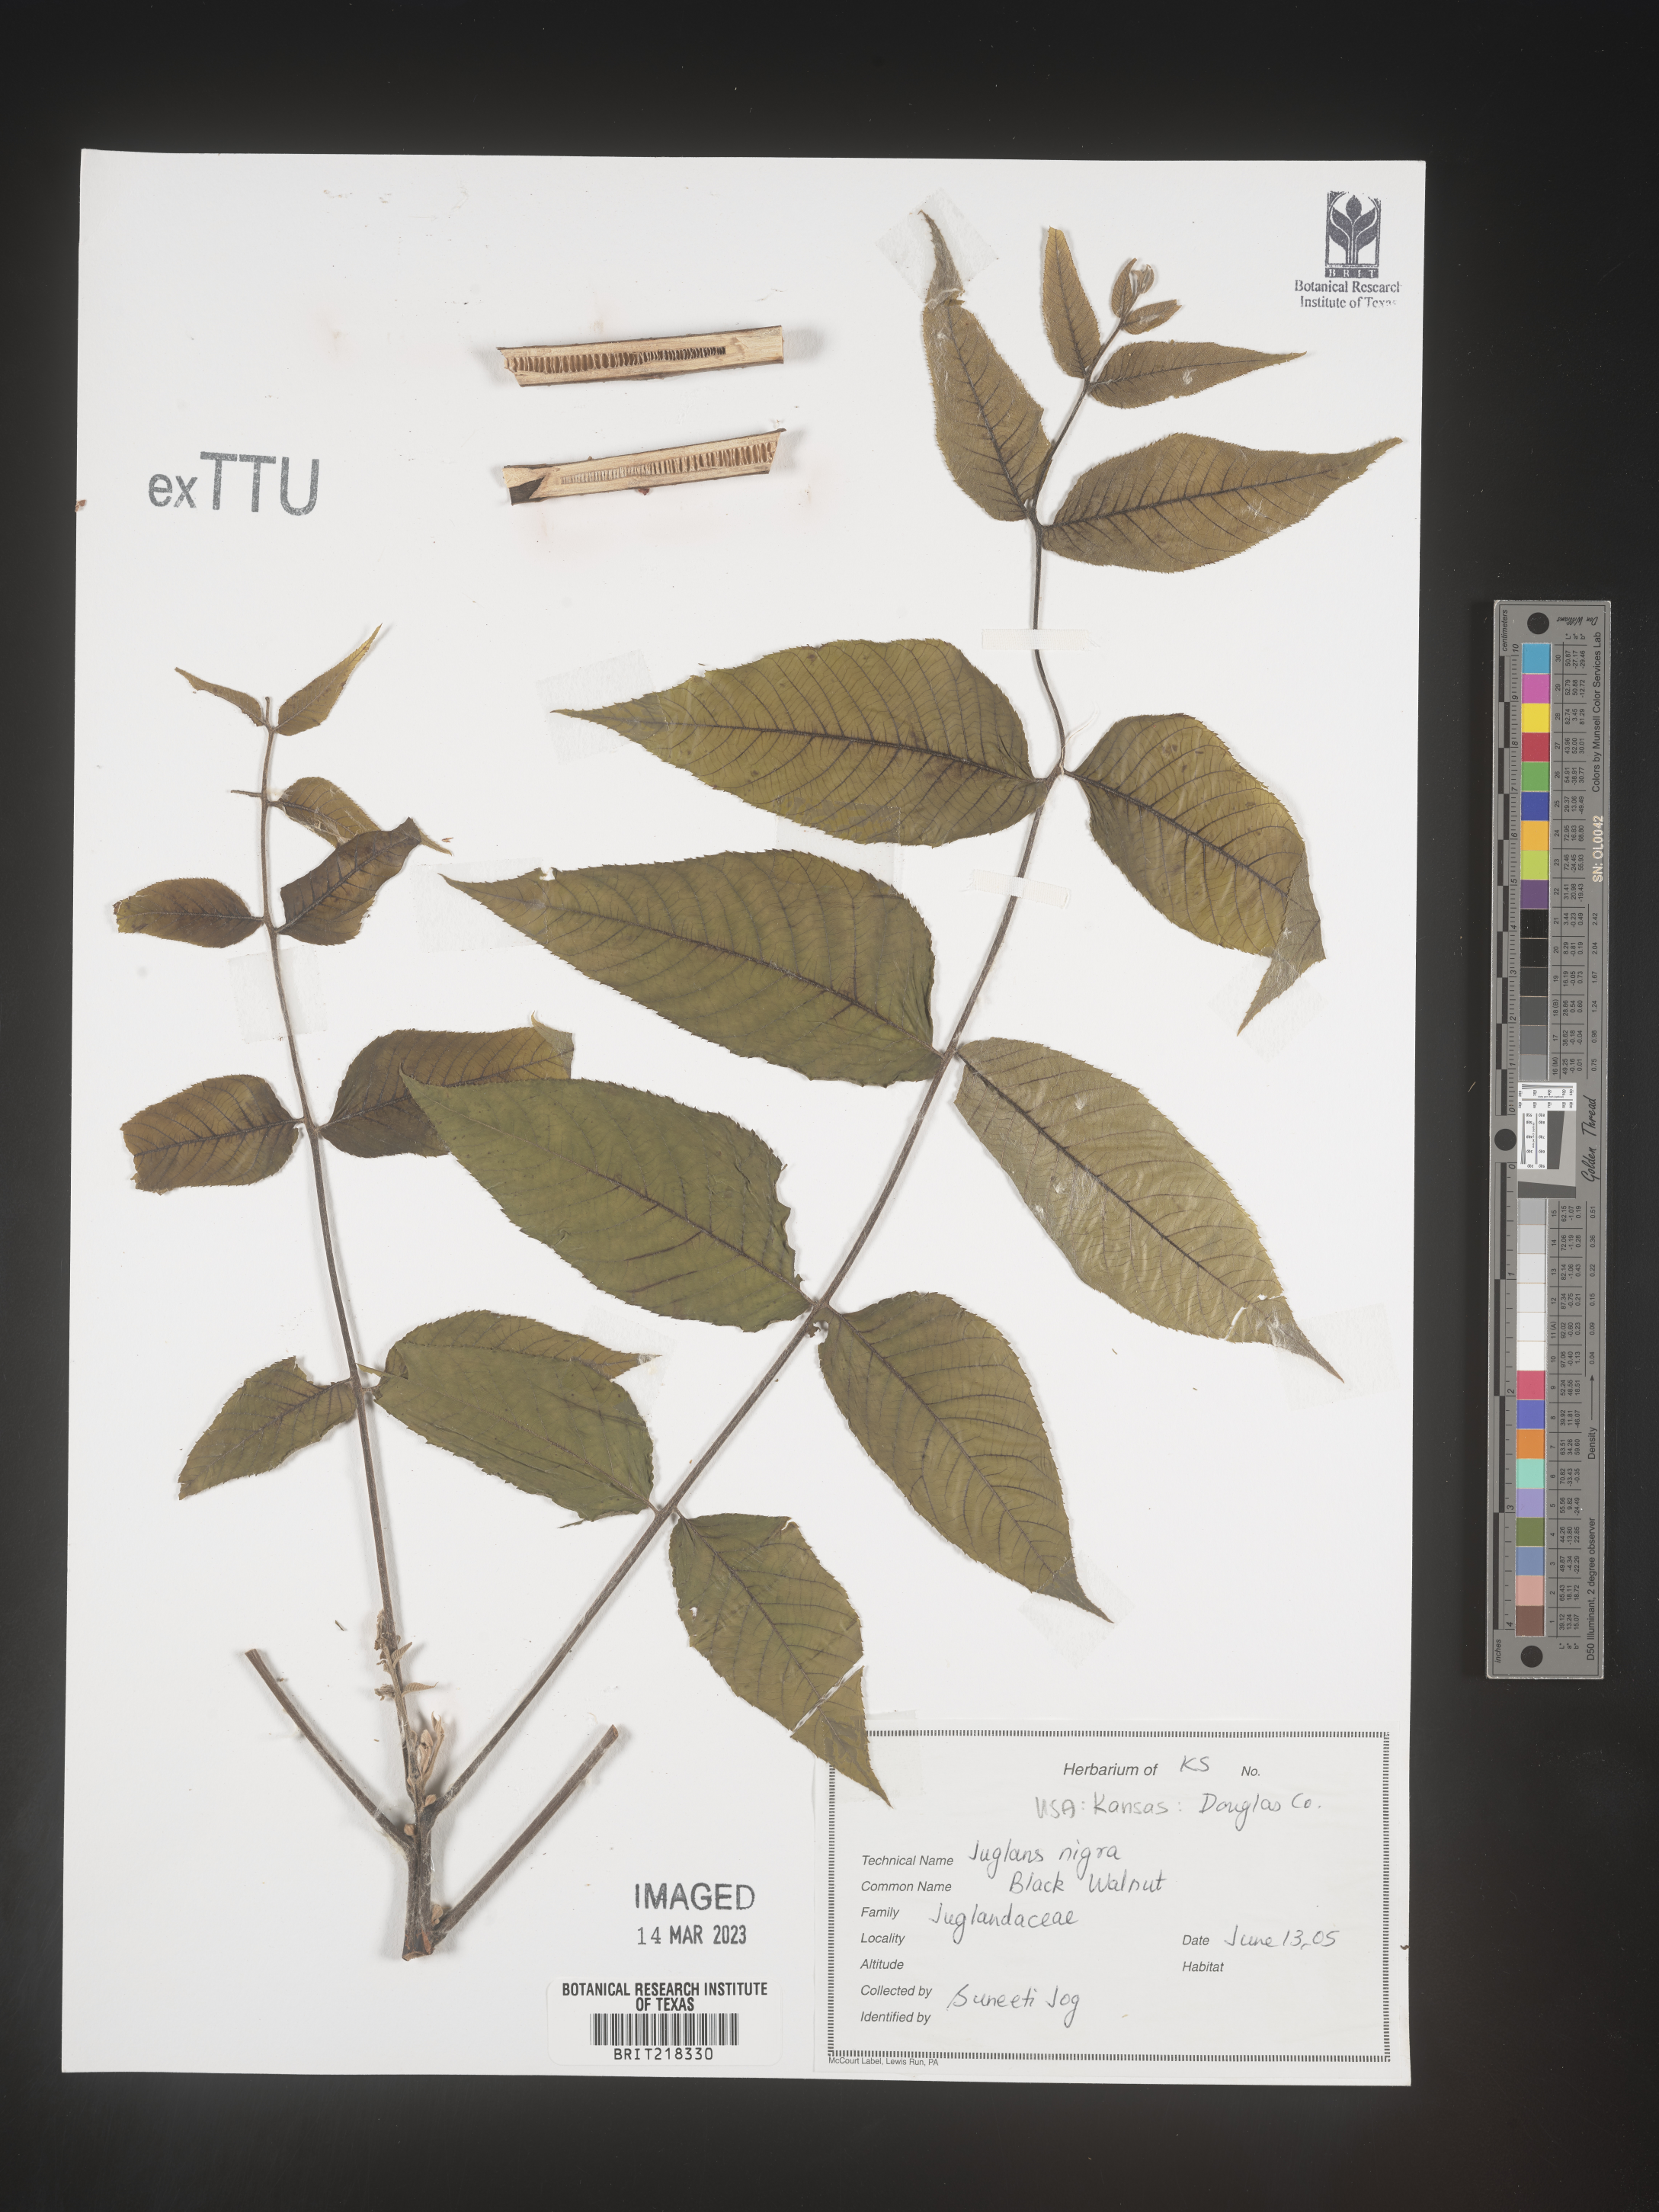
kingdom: Plantae
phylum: Tracheophyta
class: Magnoliopsida
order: Fagales
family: Juglandaceae
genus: Juglans
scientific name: Juglans nigra
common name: Black walnut
